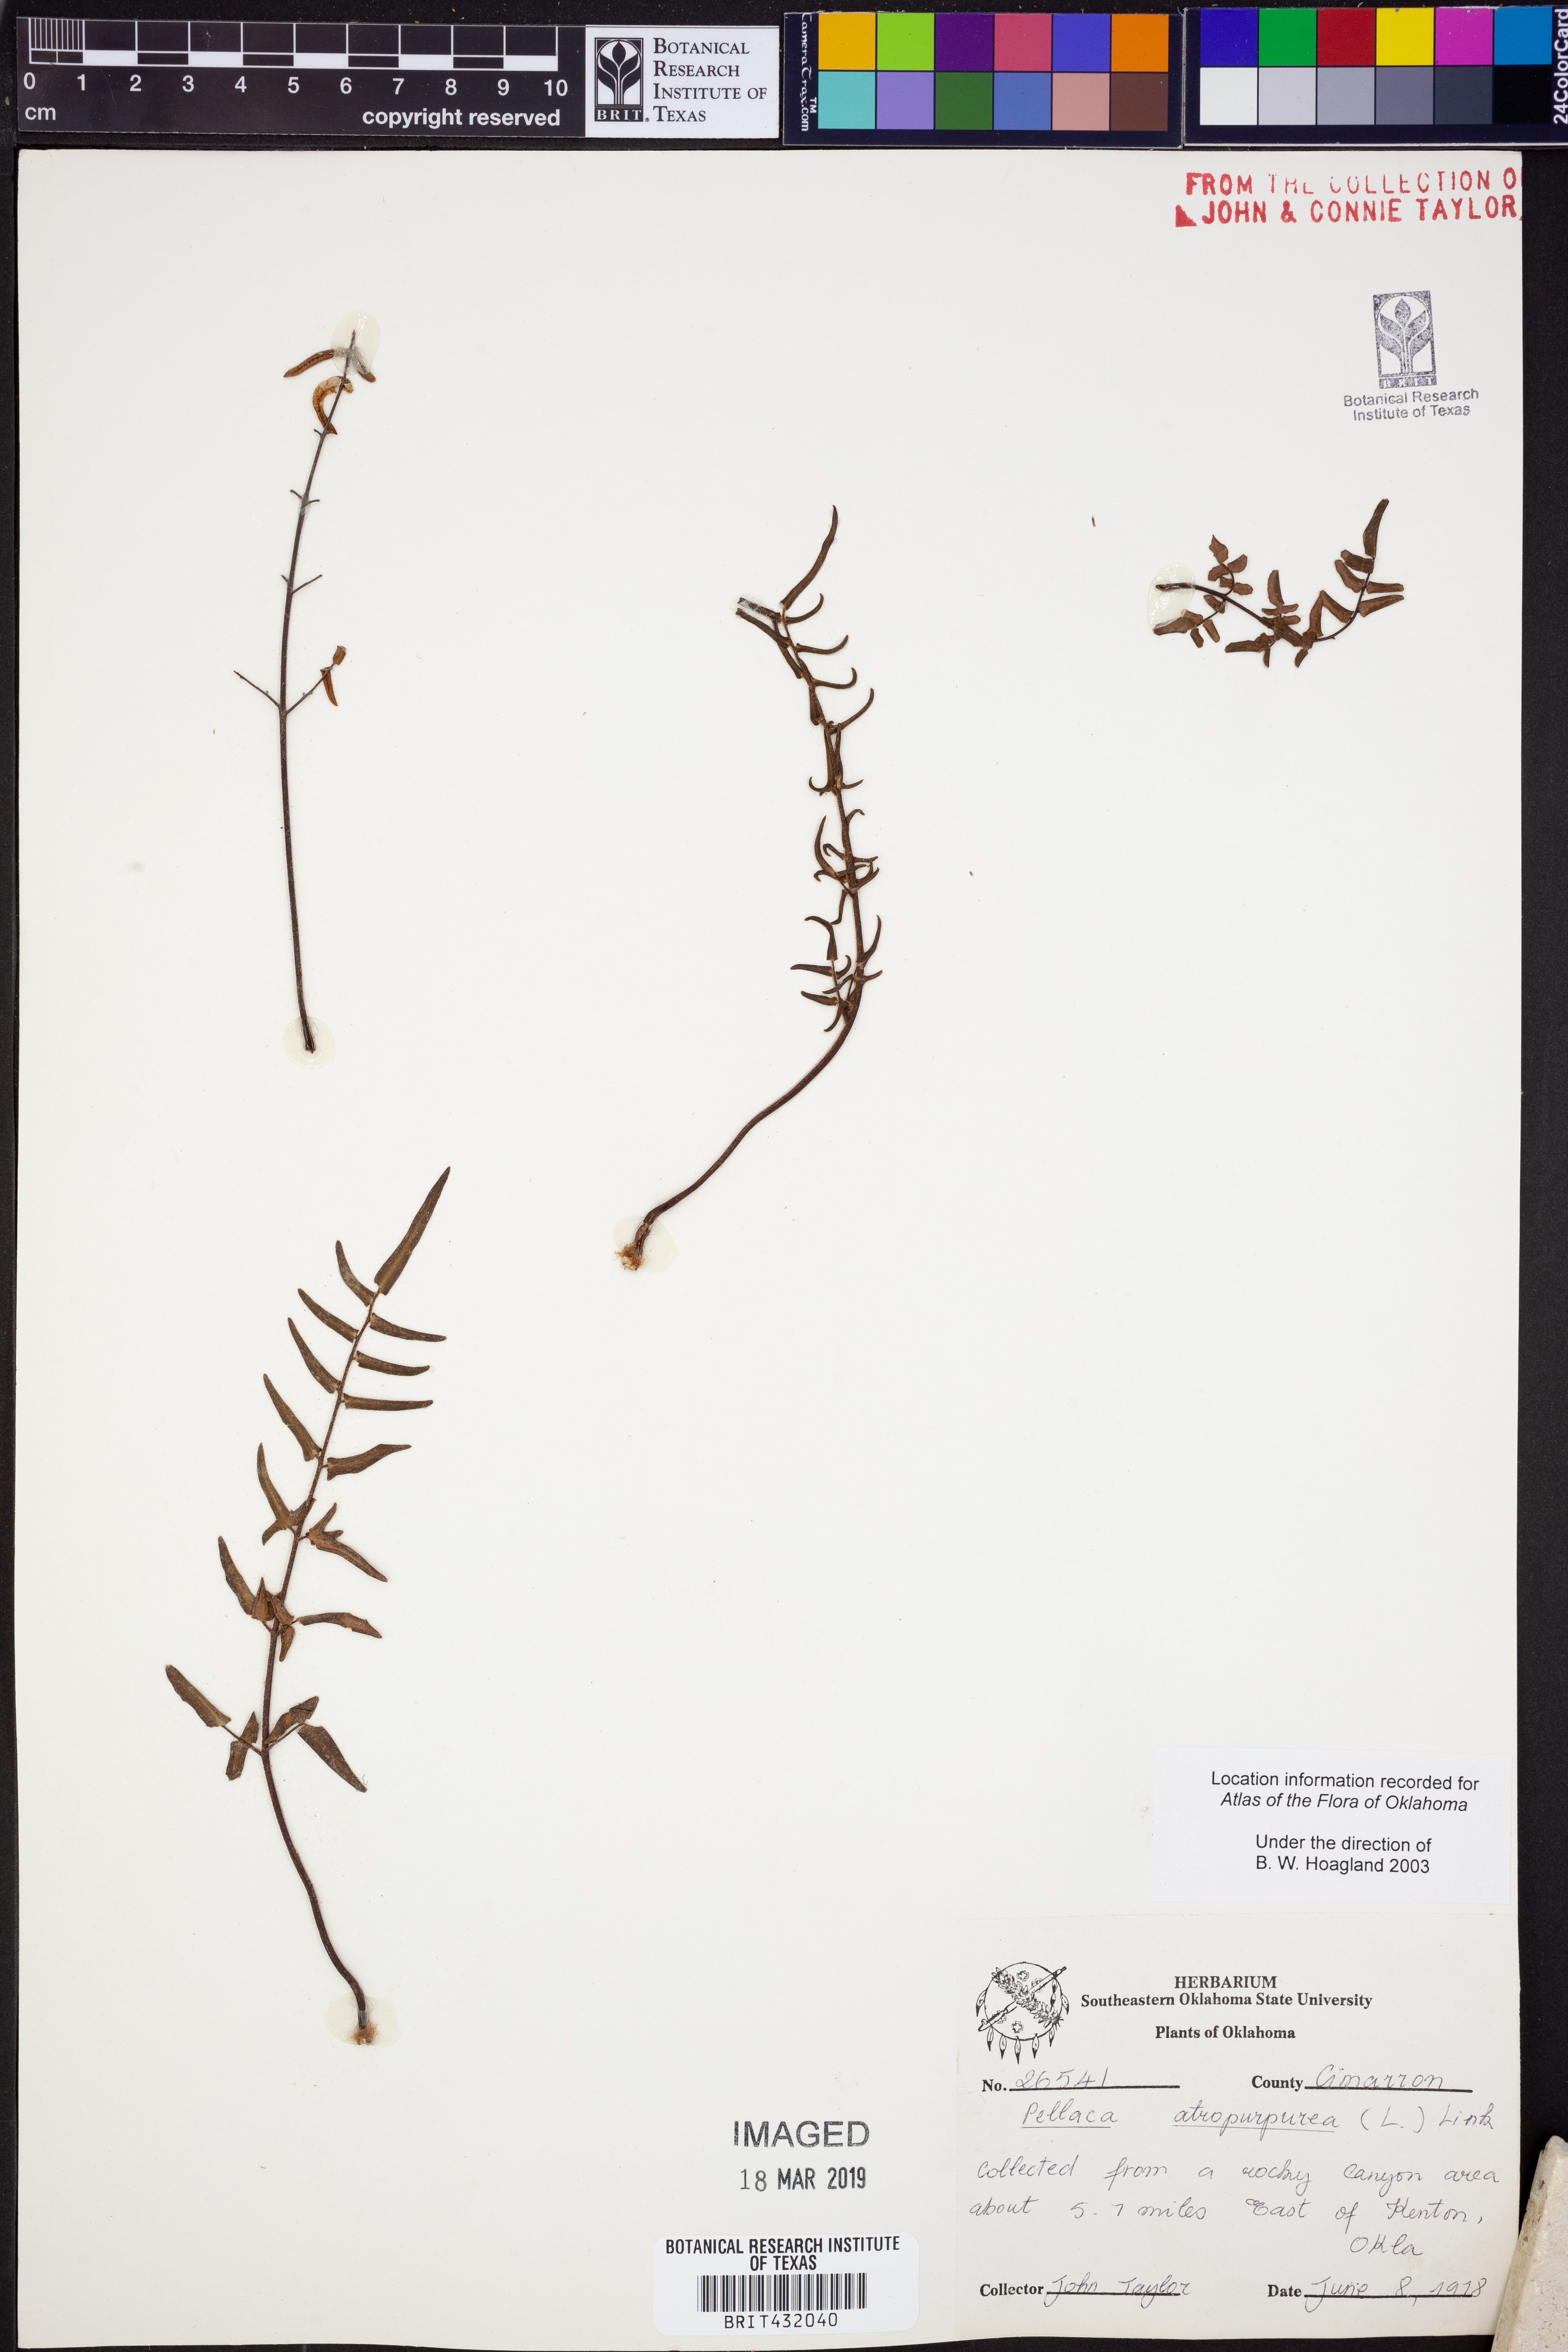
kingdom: Plantae
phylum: Tracheophyta
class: Polypodiopsida
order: Polypodiales
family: Pteridaceae
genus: Pellaea
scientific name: Pellaea atropurpurea
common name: Hairy cliffbrake
